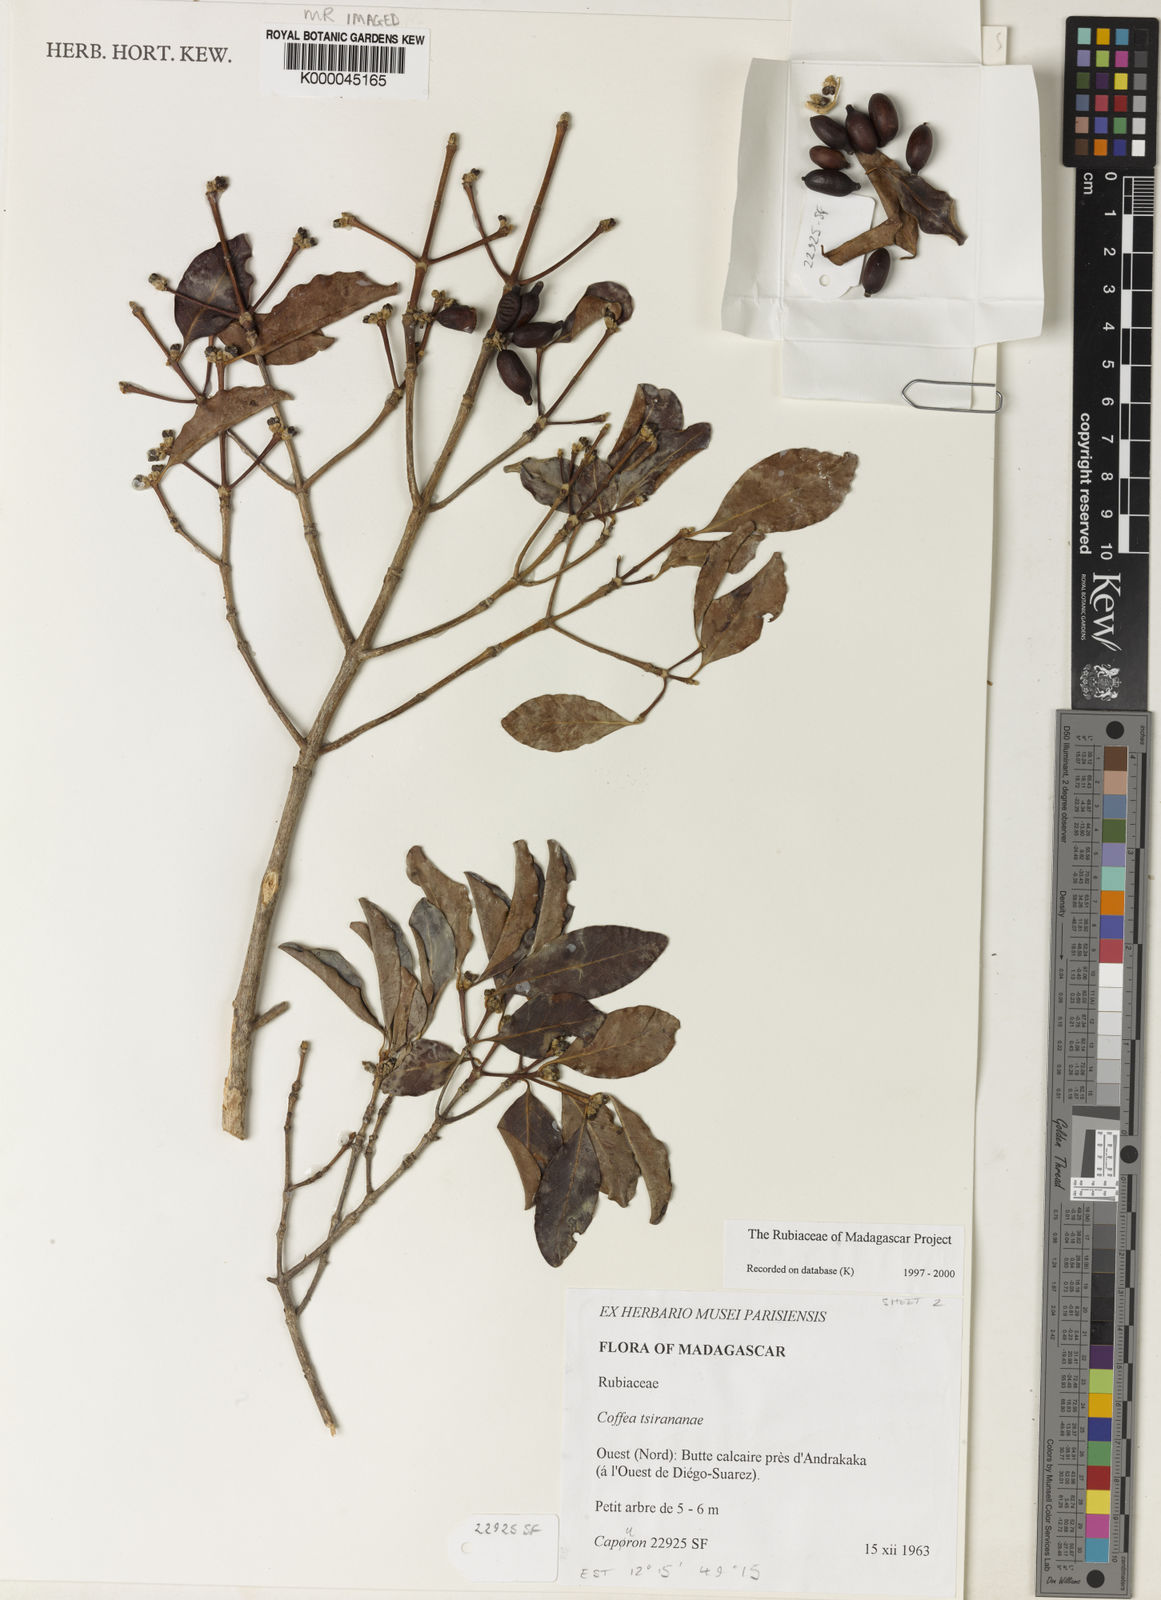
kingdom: Plantae
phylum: Tracheophyta
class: Magnoliopsida
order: Gentianales
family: Rubiaceae
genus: Coffea
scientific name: Coffea tsirananae
